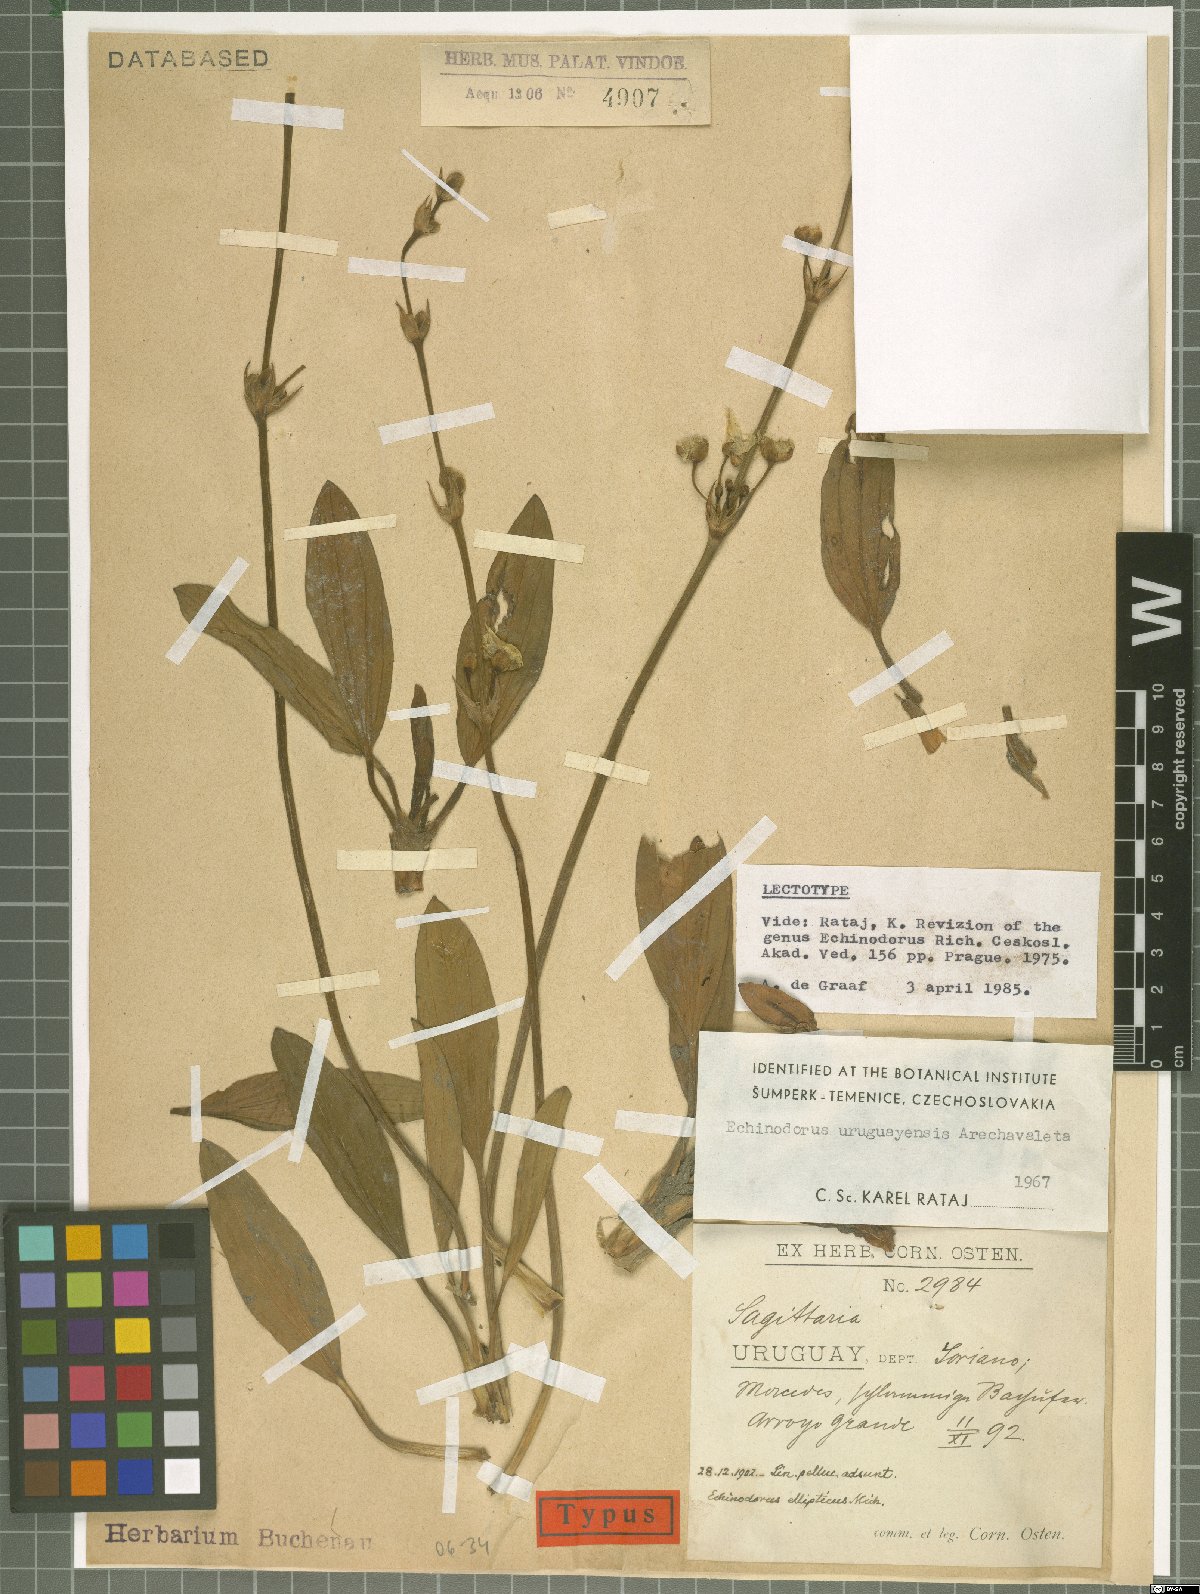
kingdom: Plantae
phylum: Tracheophyta
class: Liliopsida
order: Alismatales
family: Alismataceae
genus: Aquarius
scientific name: Aquarius uruguayensis
